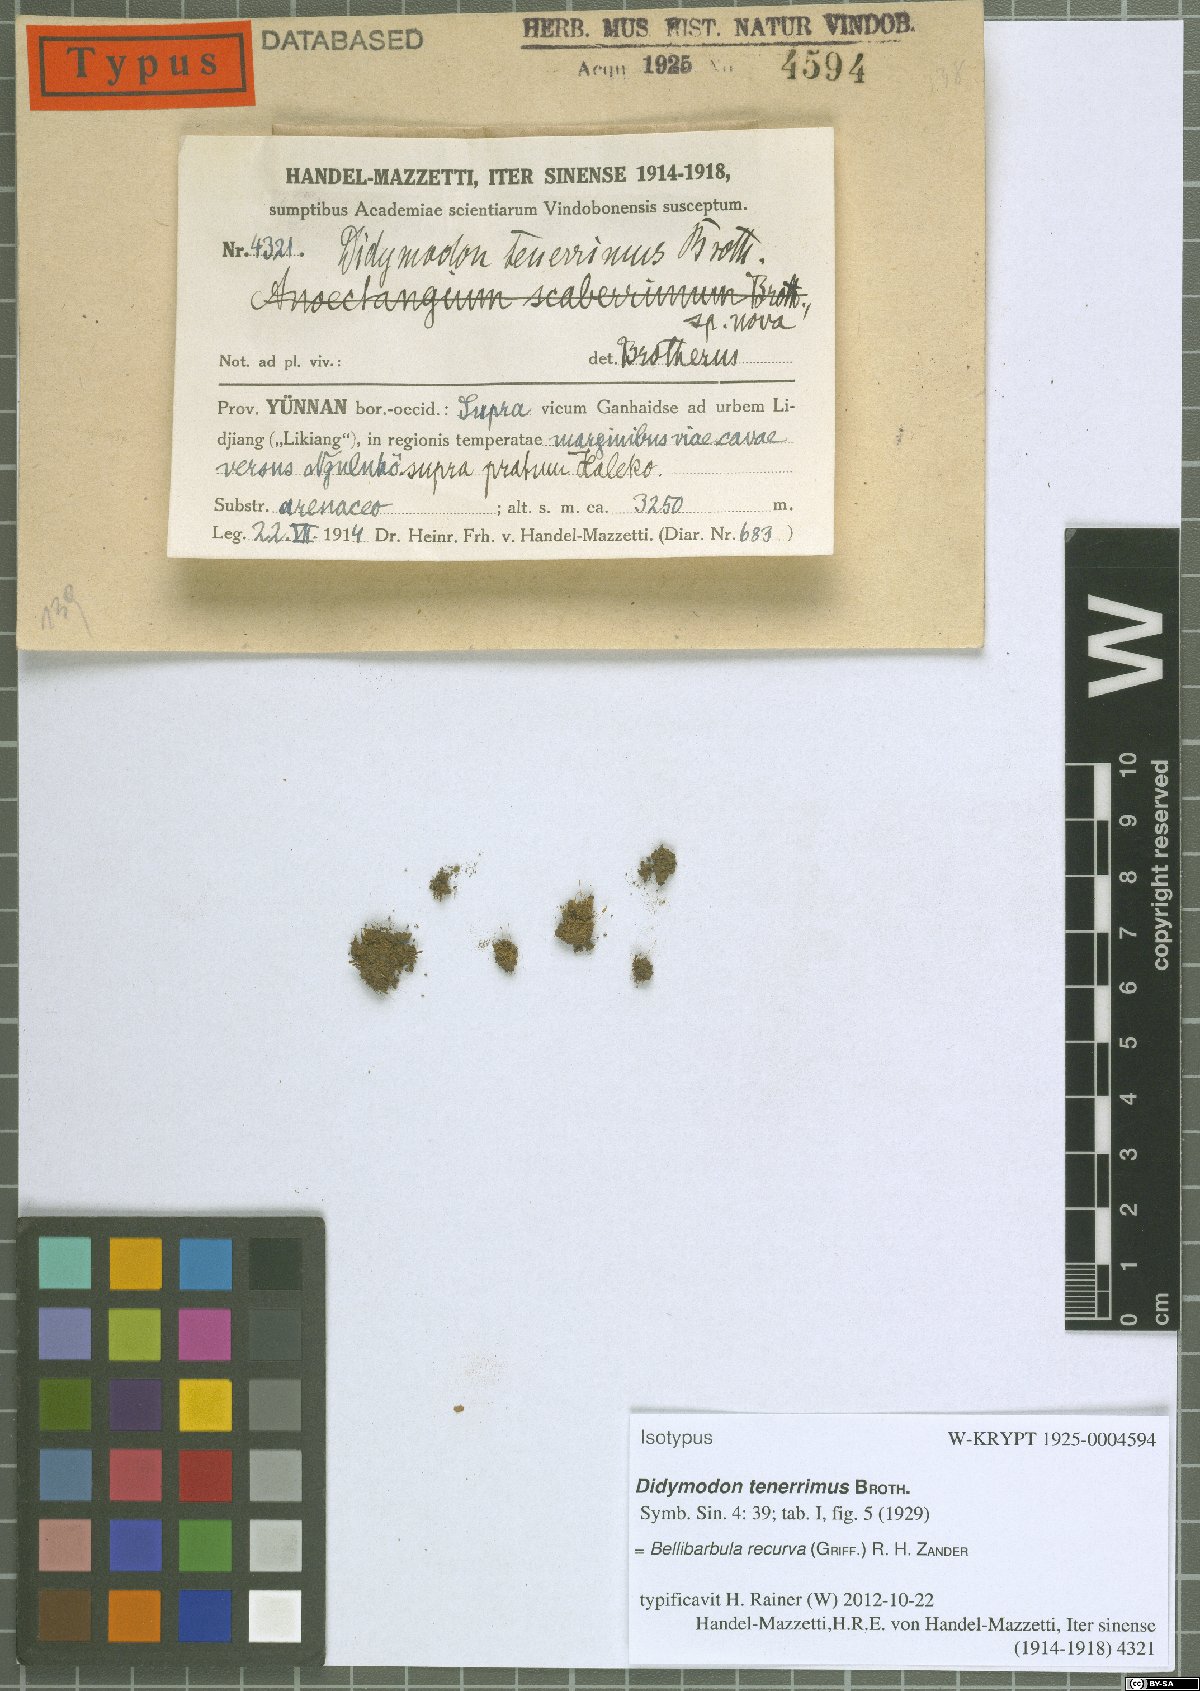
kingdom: Plantae
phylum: Bryophyta
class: Bryopsida
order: Pottiales
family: Pottiaceae
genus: Bellibarbula
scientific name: Bellibarbula recurva
